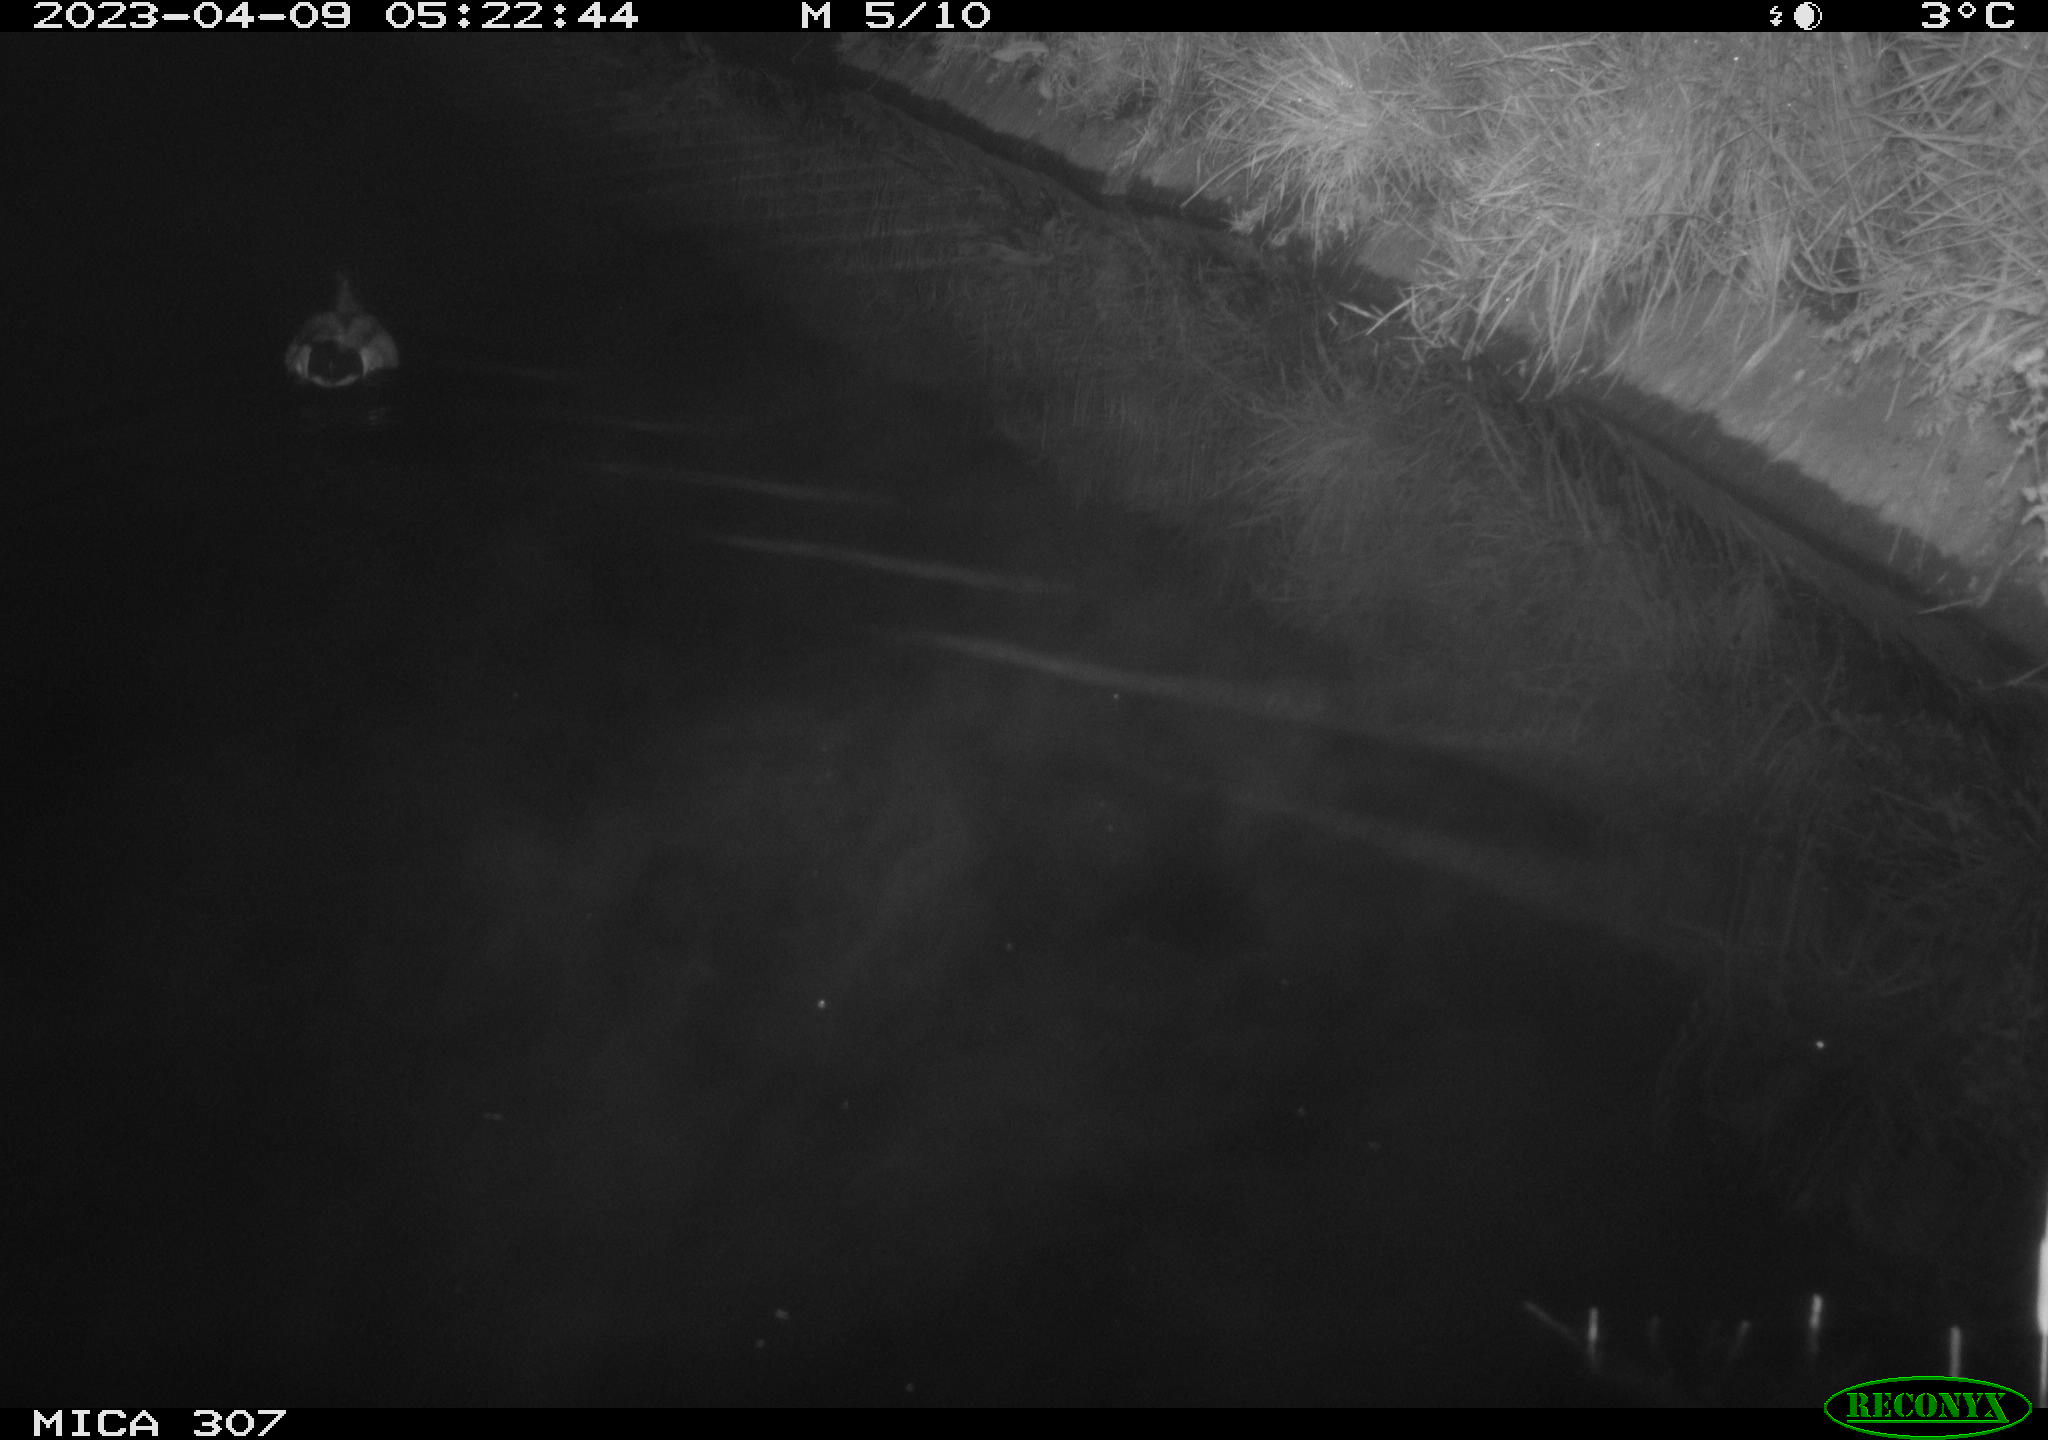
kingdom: Animalia
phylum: Chordata
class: Aves
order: Anseriformes
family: Anatidae
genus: Anas
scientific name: Anas
